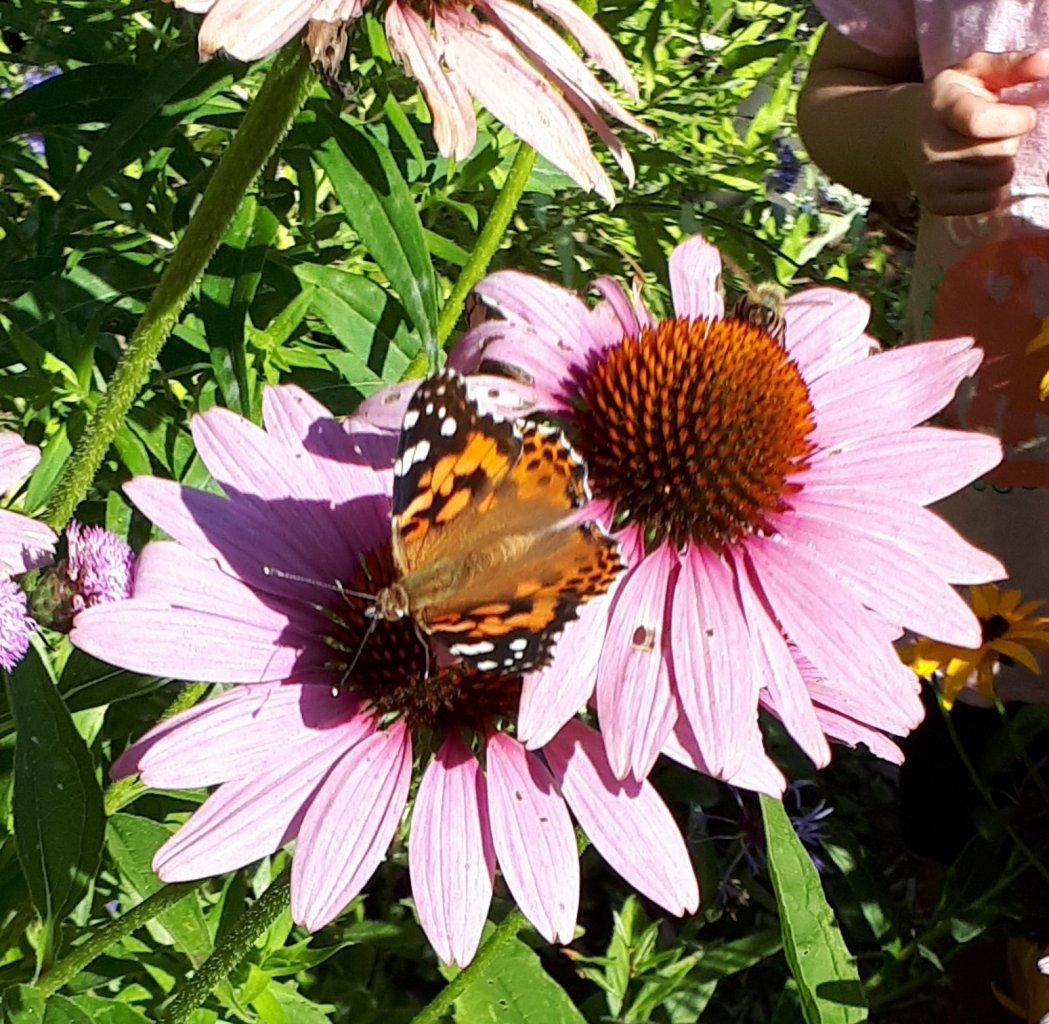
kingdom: Animalia
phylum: Arthropoda
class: Insecta
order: Lepidoptera
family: Nymphalidae
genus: Vanessa
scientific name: Vanessa cardui
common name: Painted Lady
